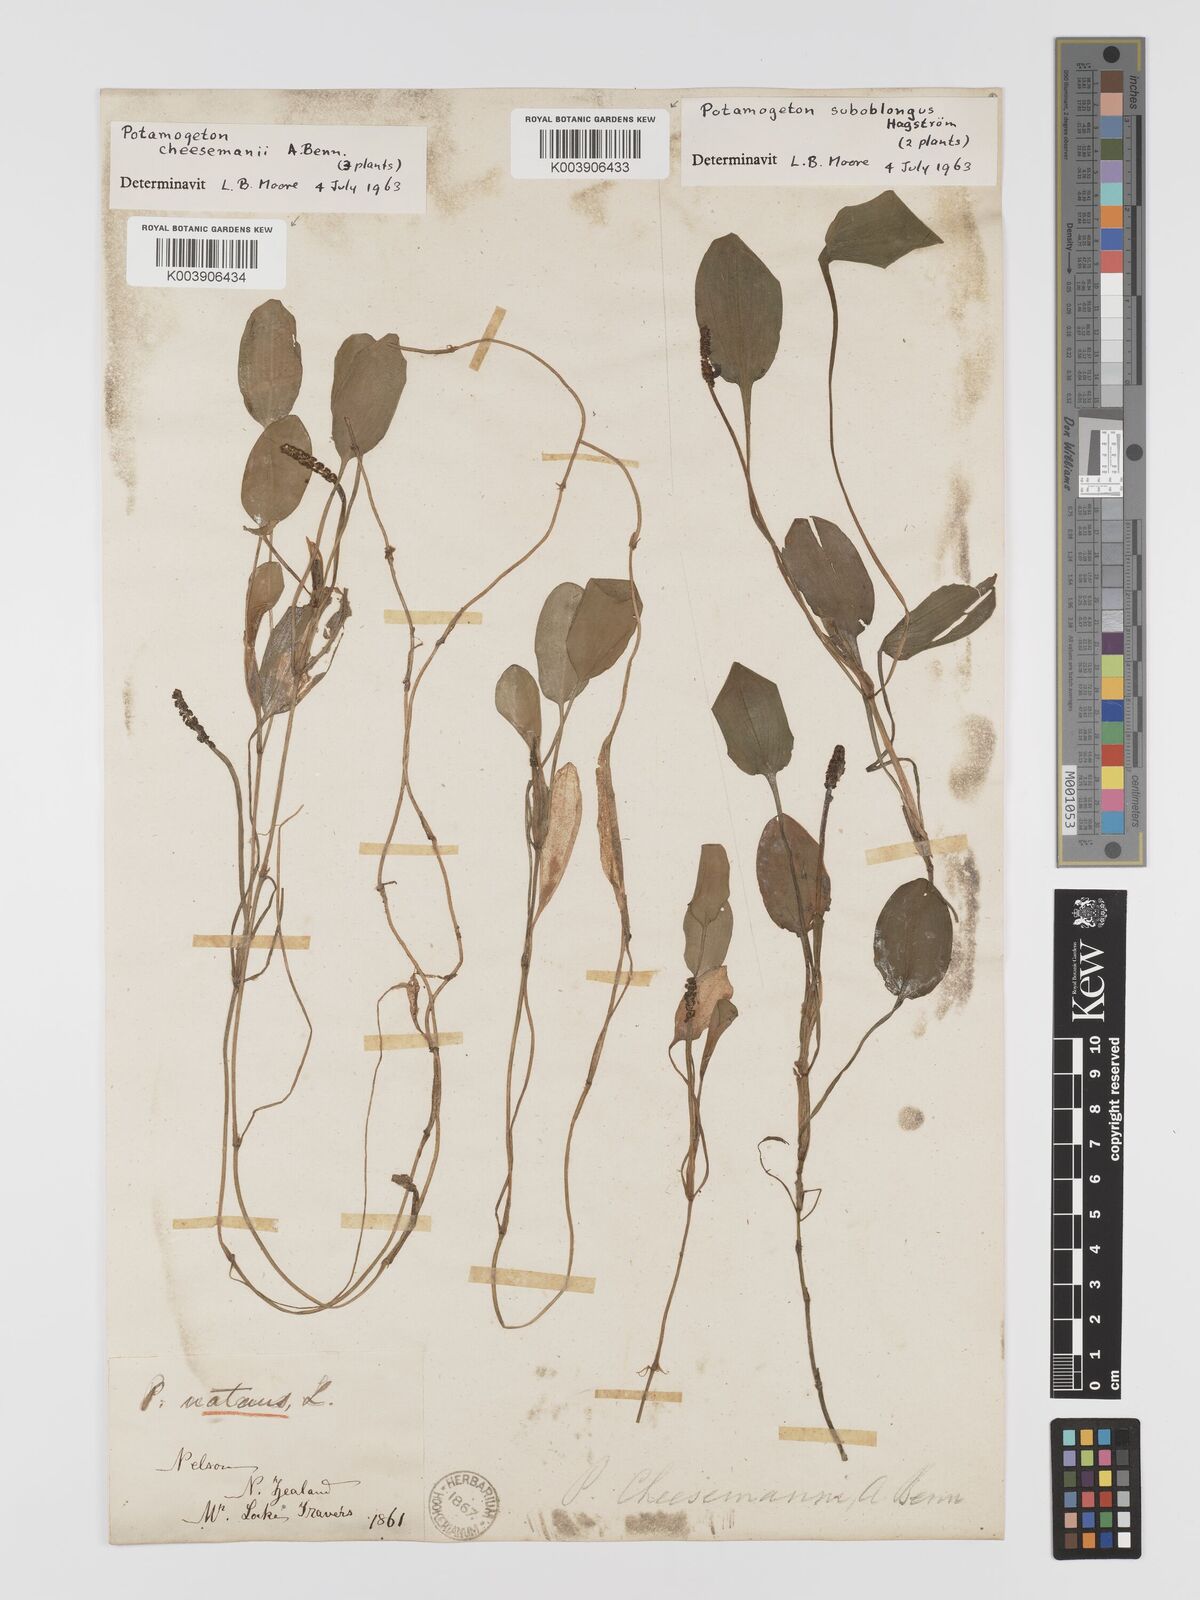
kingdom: Plantae
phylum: Tracheophyta
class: Liliopsida
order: Alismatales
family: Potamogetonaceae
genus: Potamogeton
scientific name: Potamogeton cheesemanii
